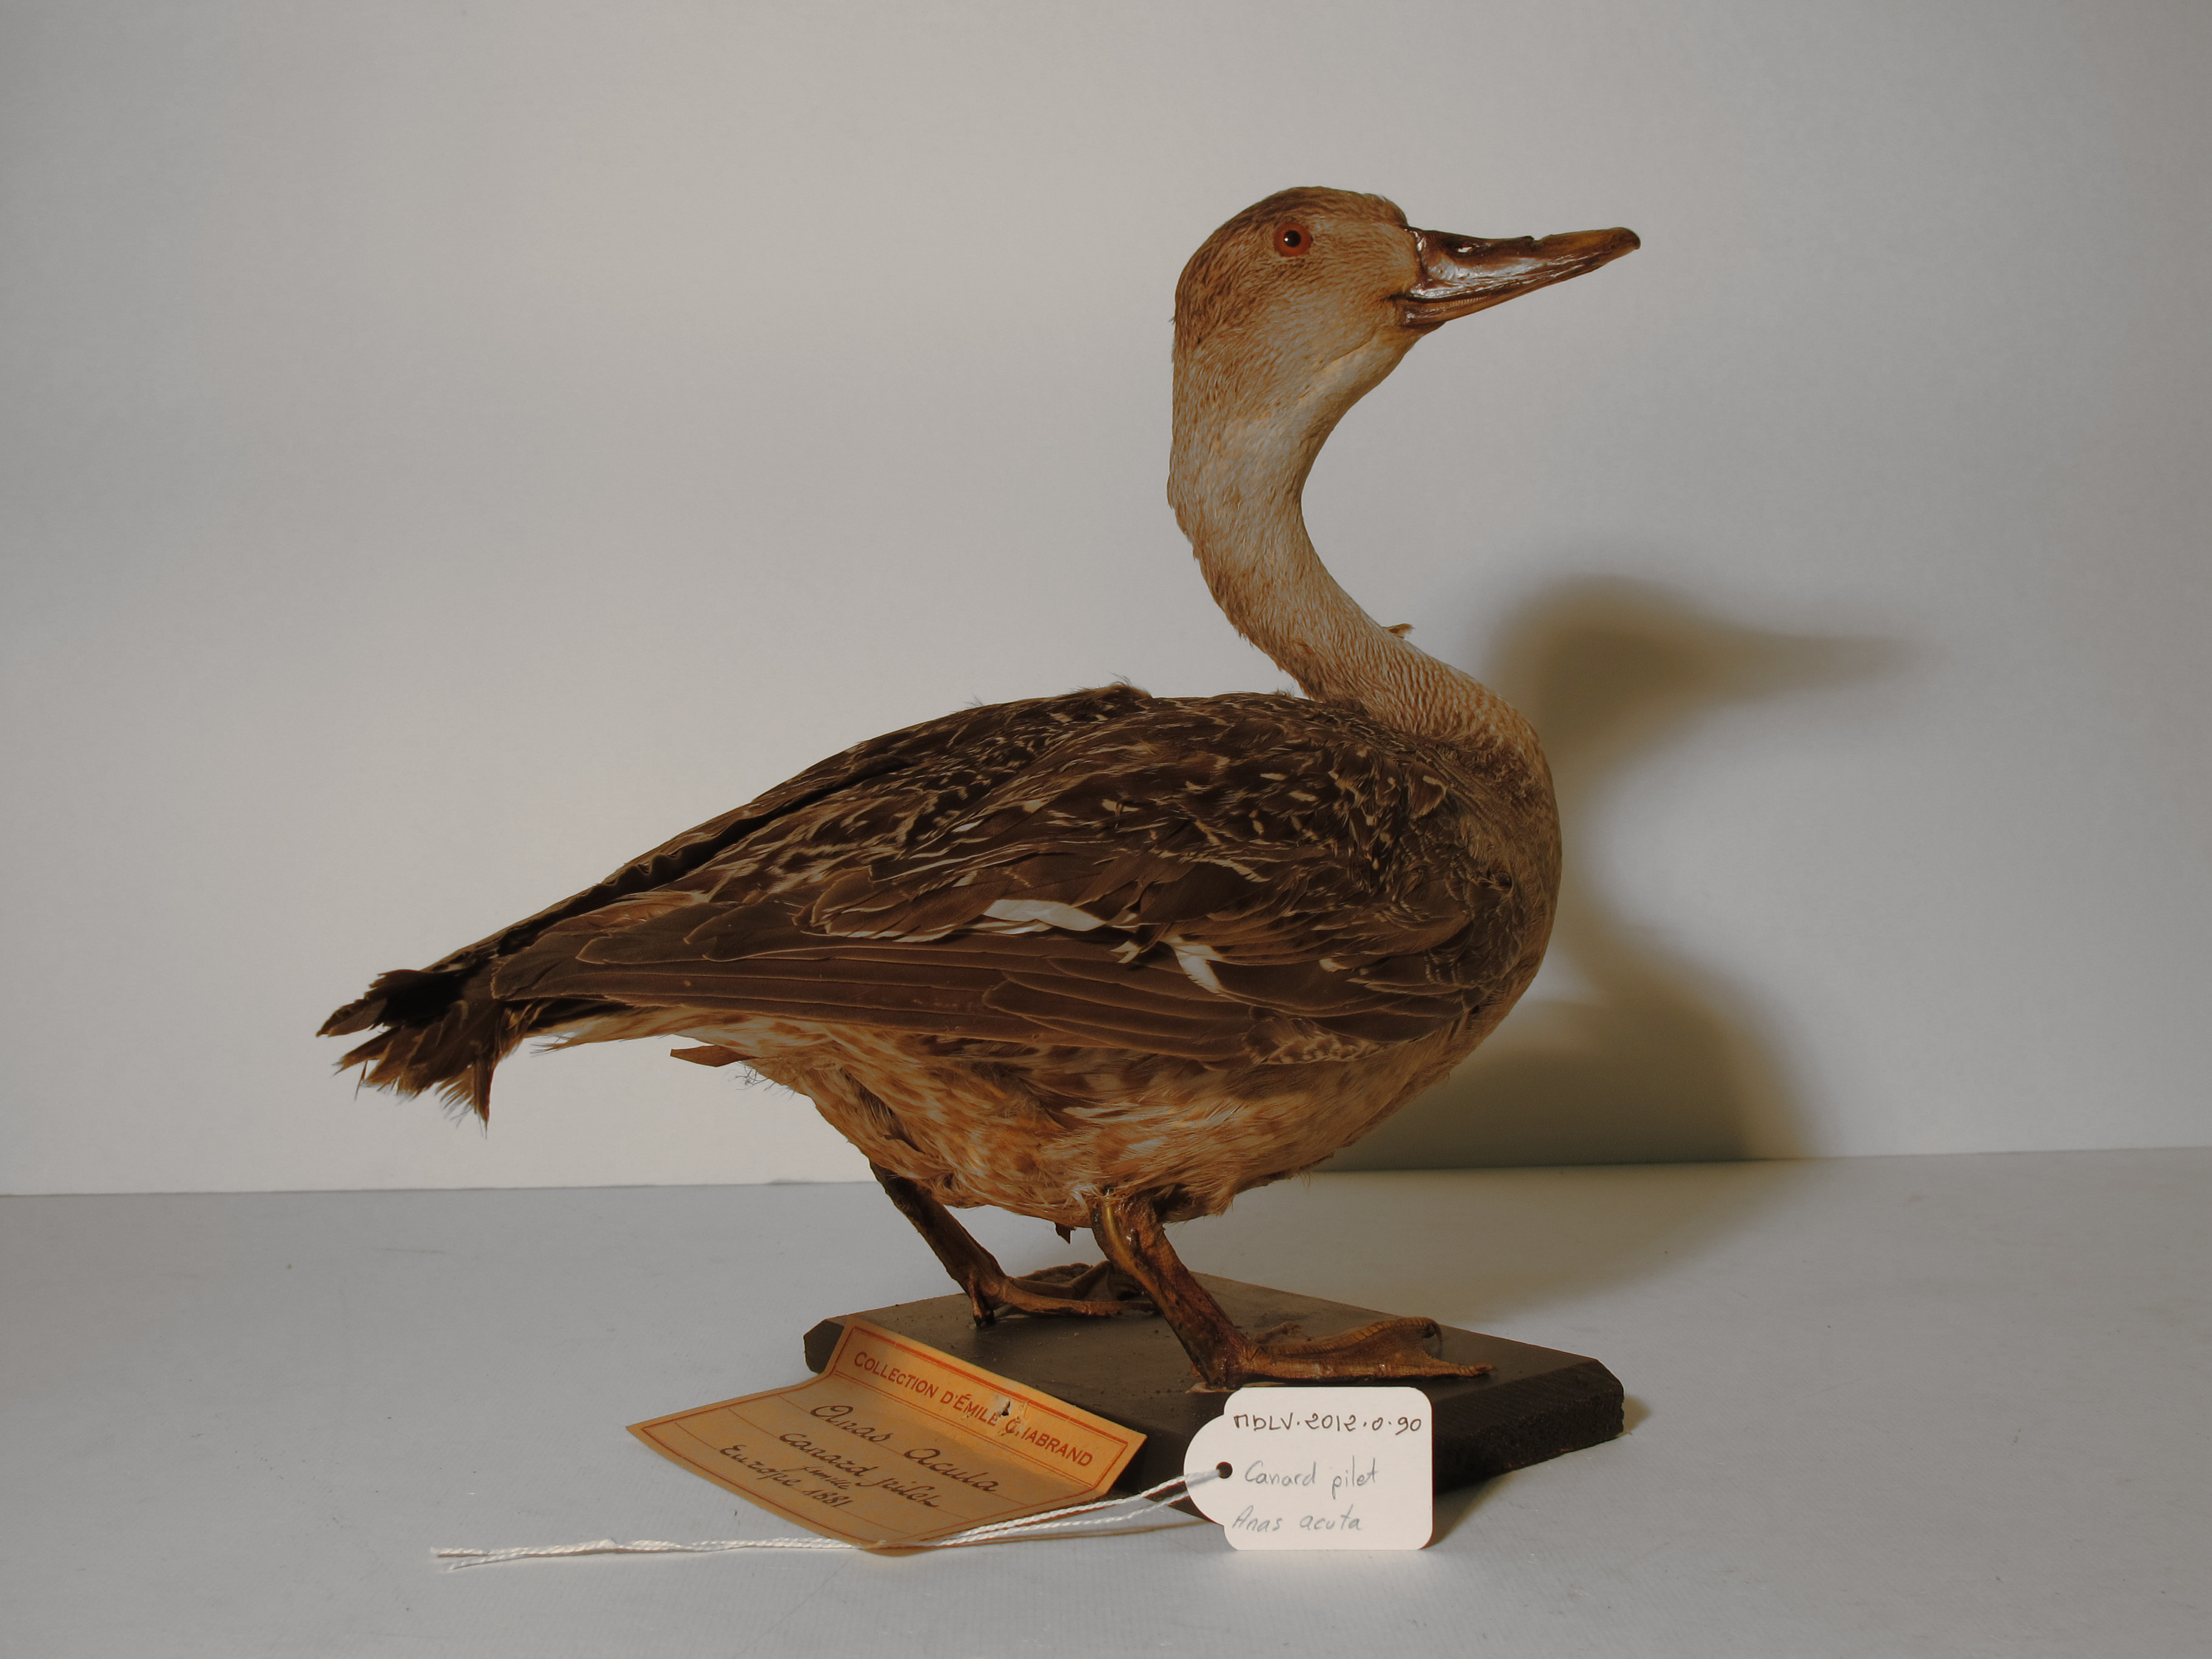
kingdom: Animalia
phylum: Chordata
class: Aves
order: Anseriformes
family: Anatidae
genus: Anas
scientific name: Anas acuta
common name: Northern Pintail
